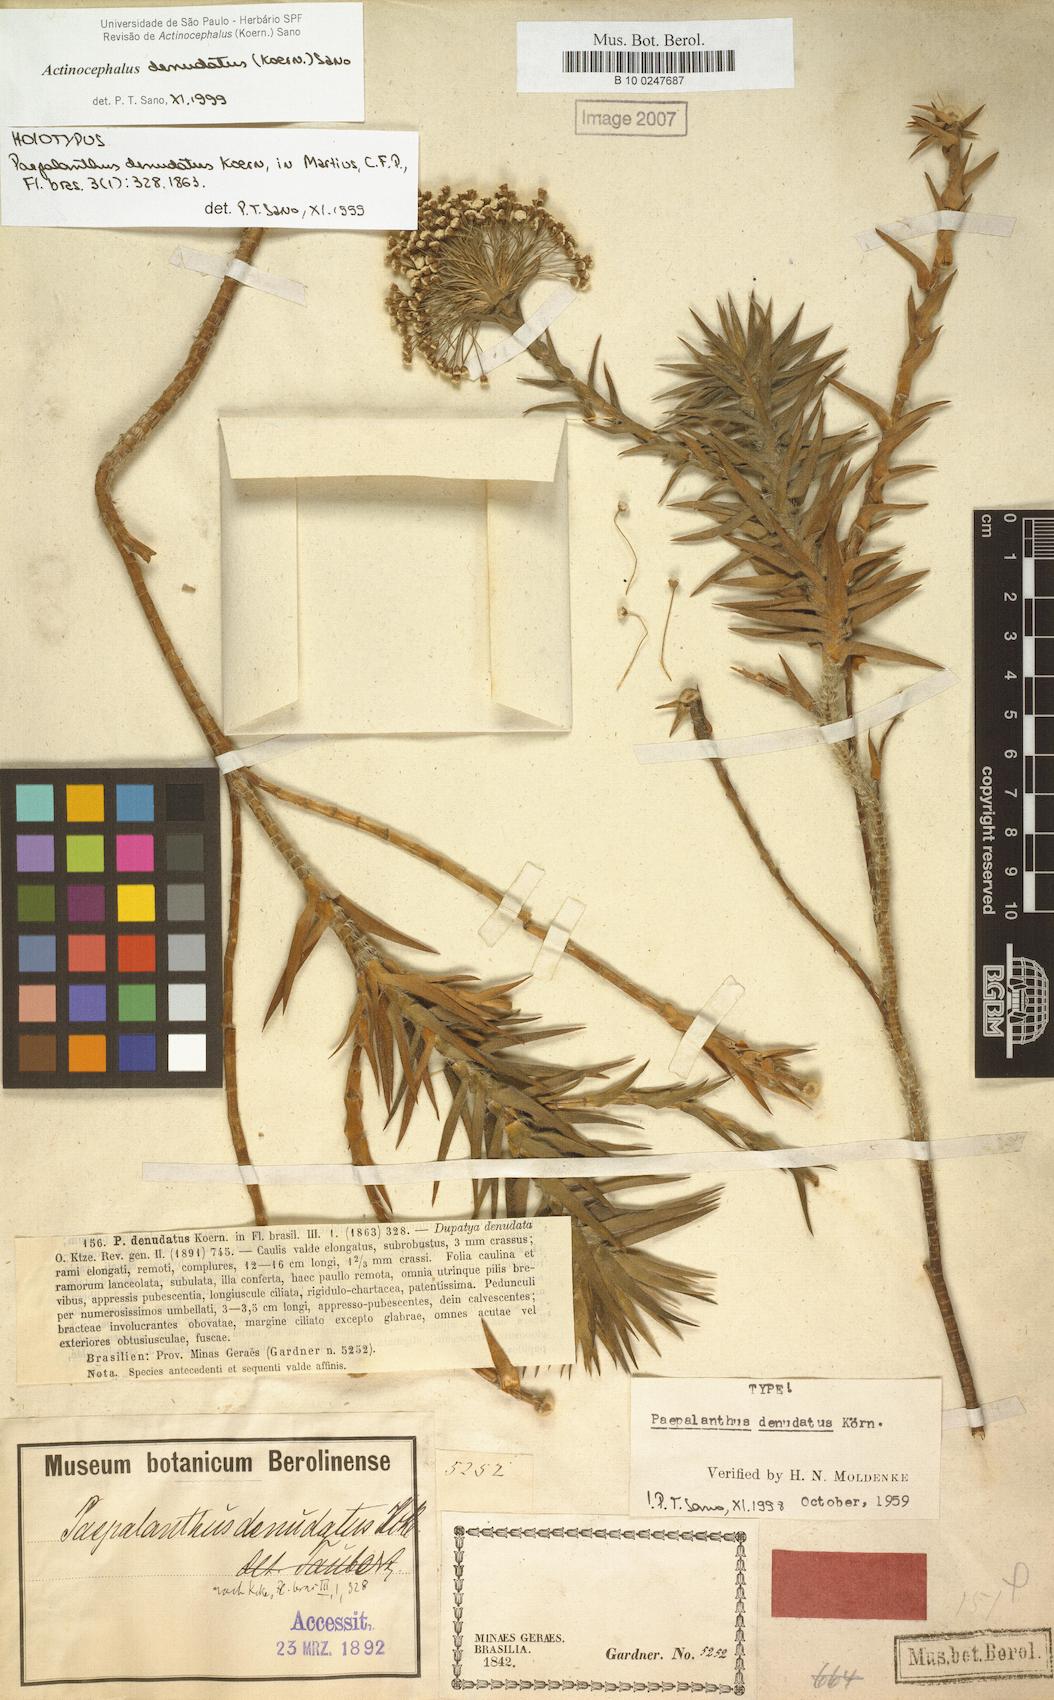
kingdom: Plantae
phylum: Tracheophyta
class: Liliopsida
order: Poales
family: Eriocaulaceae
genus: Paepalanthus
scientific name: Paepalanthus denudatus
